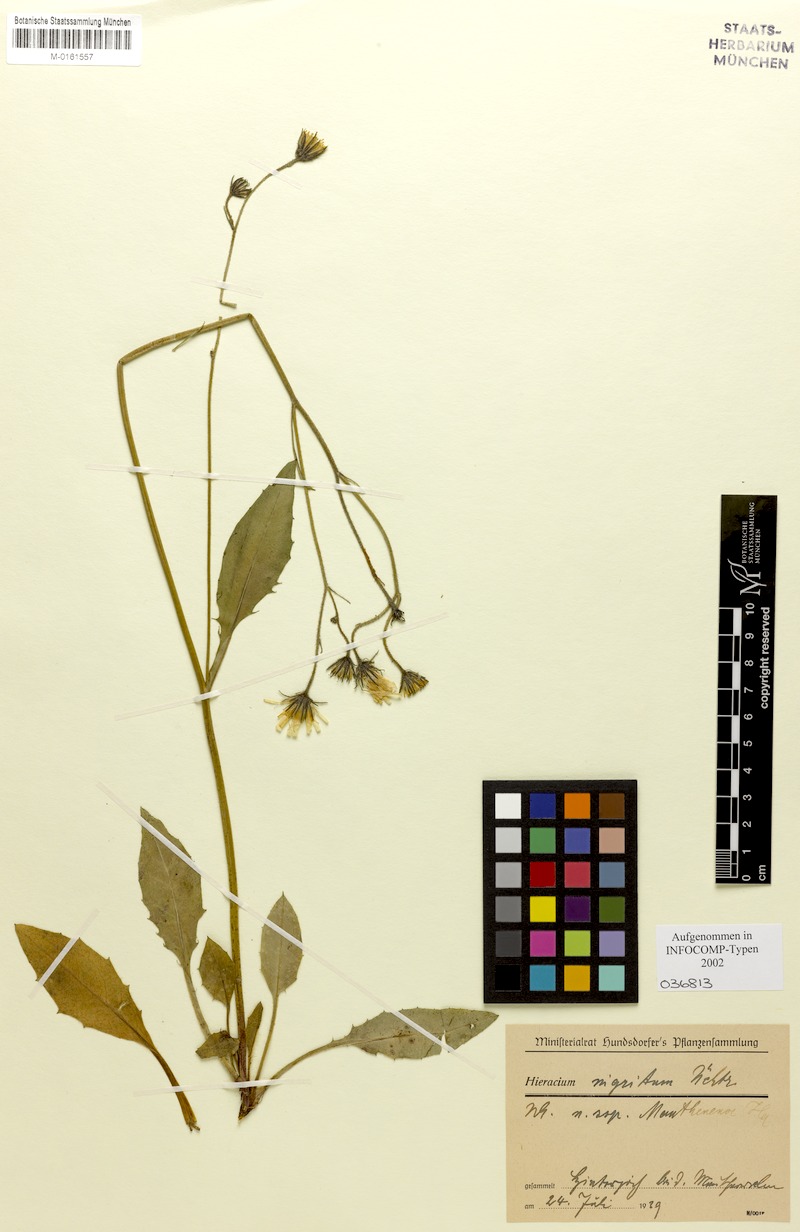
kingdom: Plantae
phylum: Tracheophyta
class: Magnoliopsida
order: Asterales
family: Asteraceae
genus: Hieracium
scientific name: Hieracium nigritum
